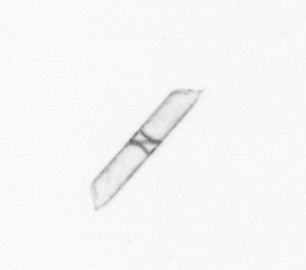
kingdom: Chromista
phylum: Ochrophyta
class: Bacillariophyceae
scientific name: Bacillariophyceae
